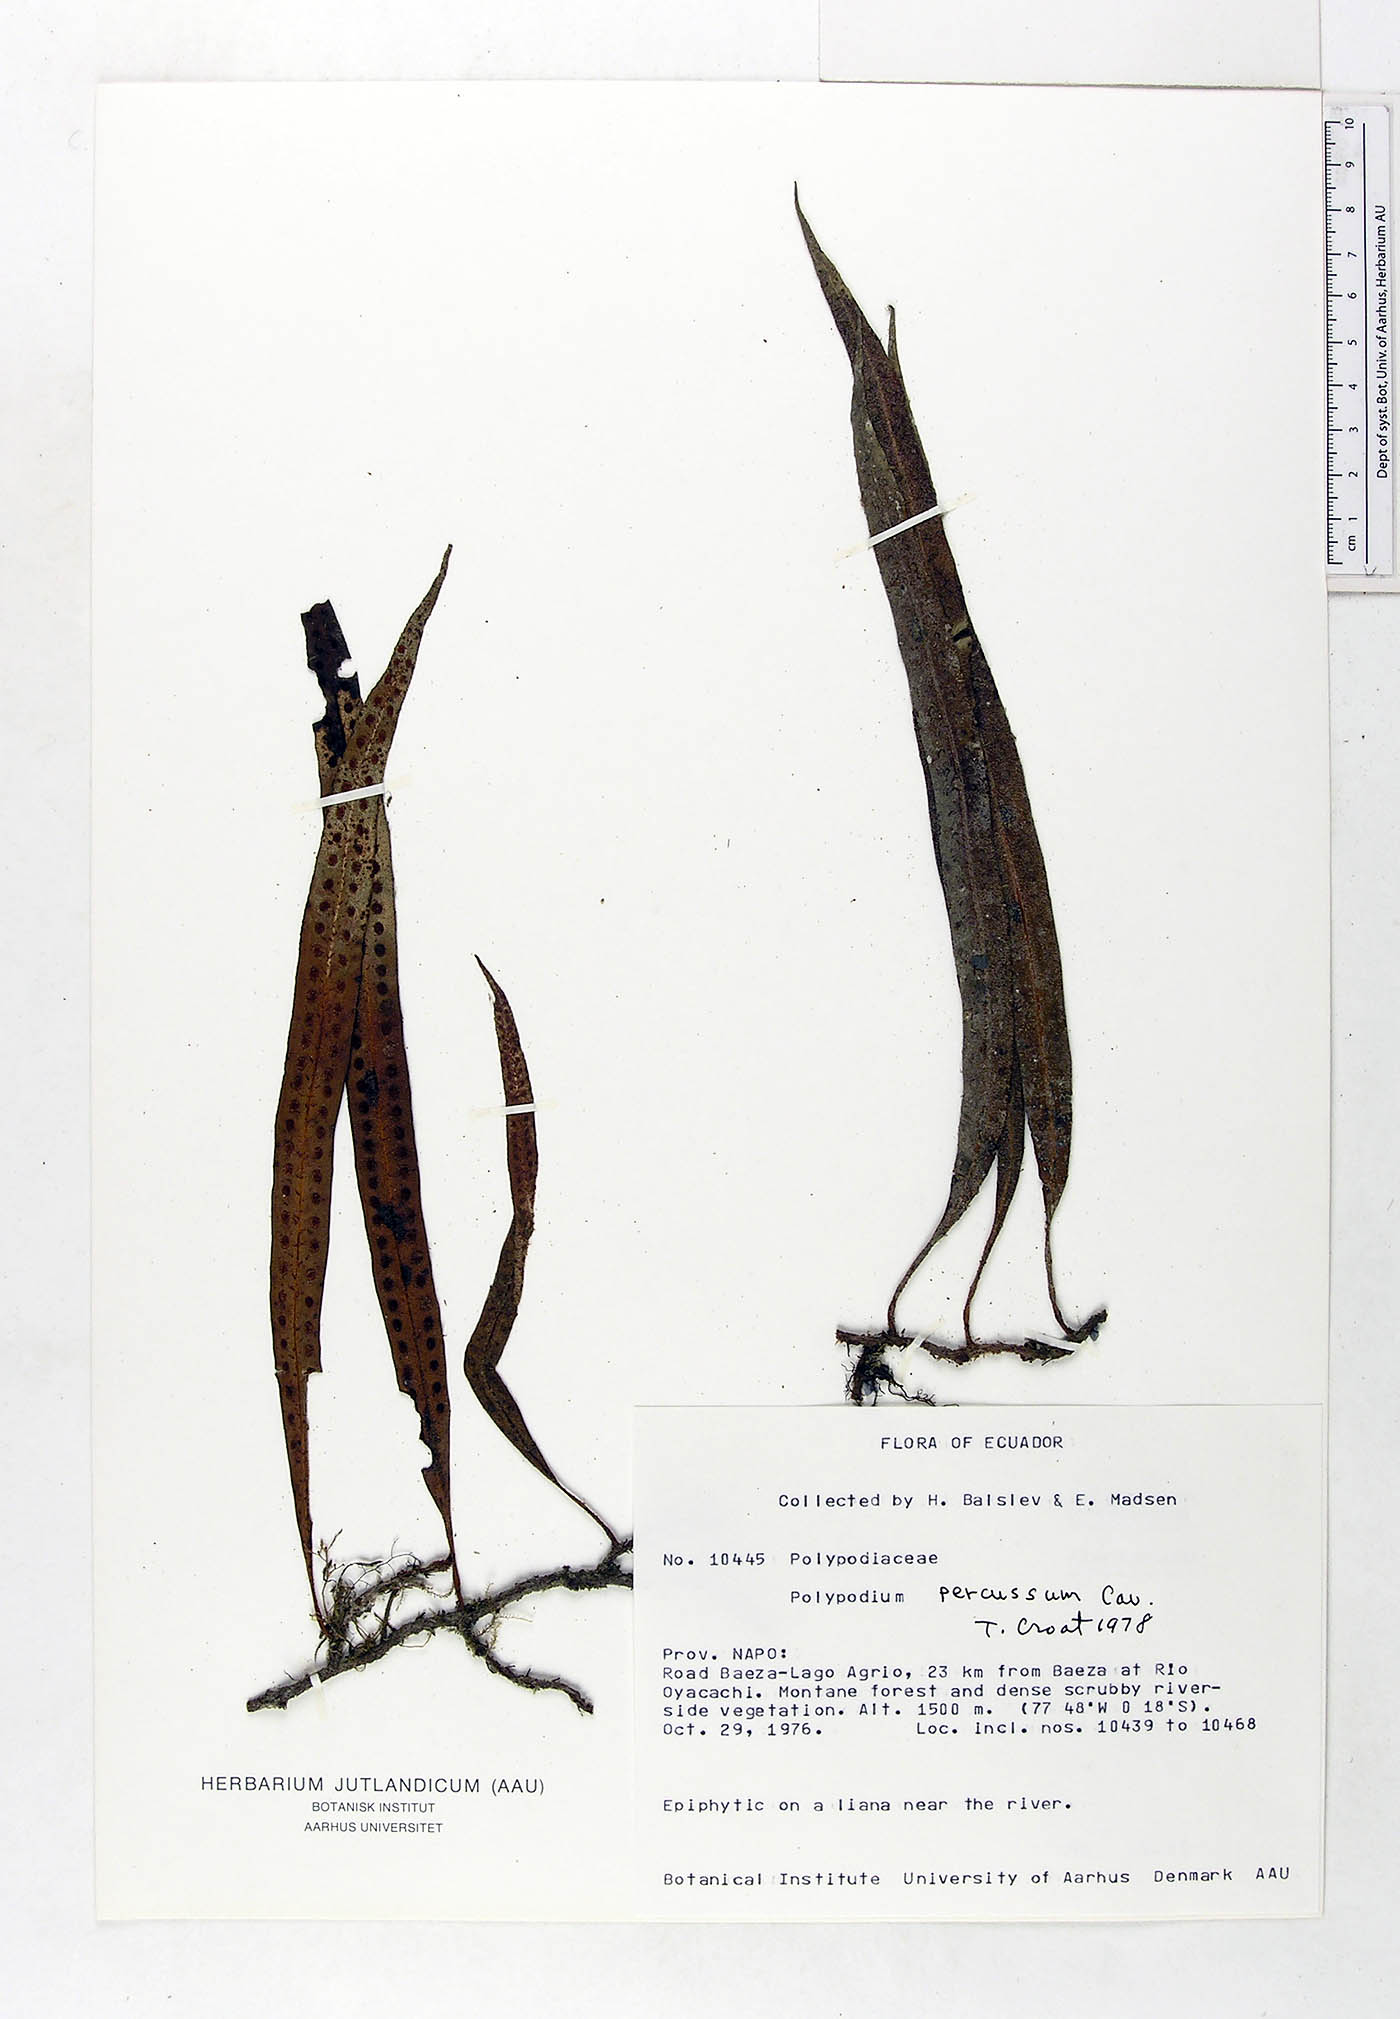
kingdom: Plantae
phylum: Tracheophyta
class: Polypodiopsida
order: Polypodiales
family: Polypodiaceae
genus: Microgramma
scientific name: Microgramma percussa
